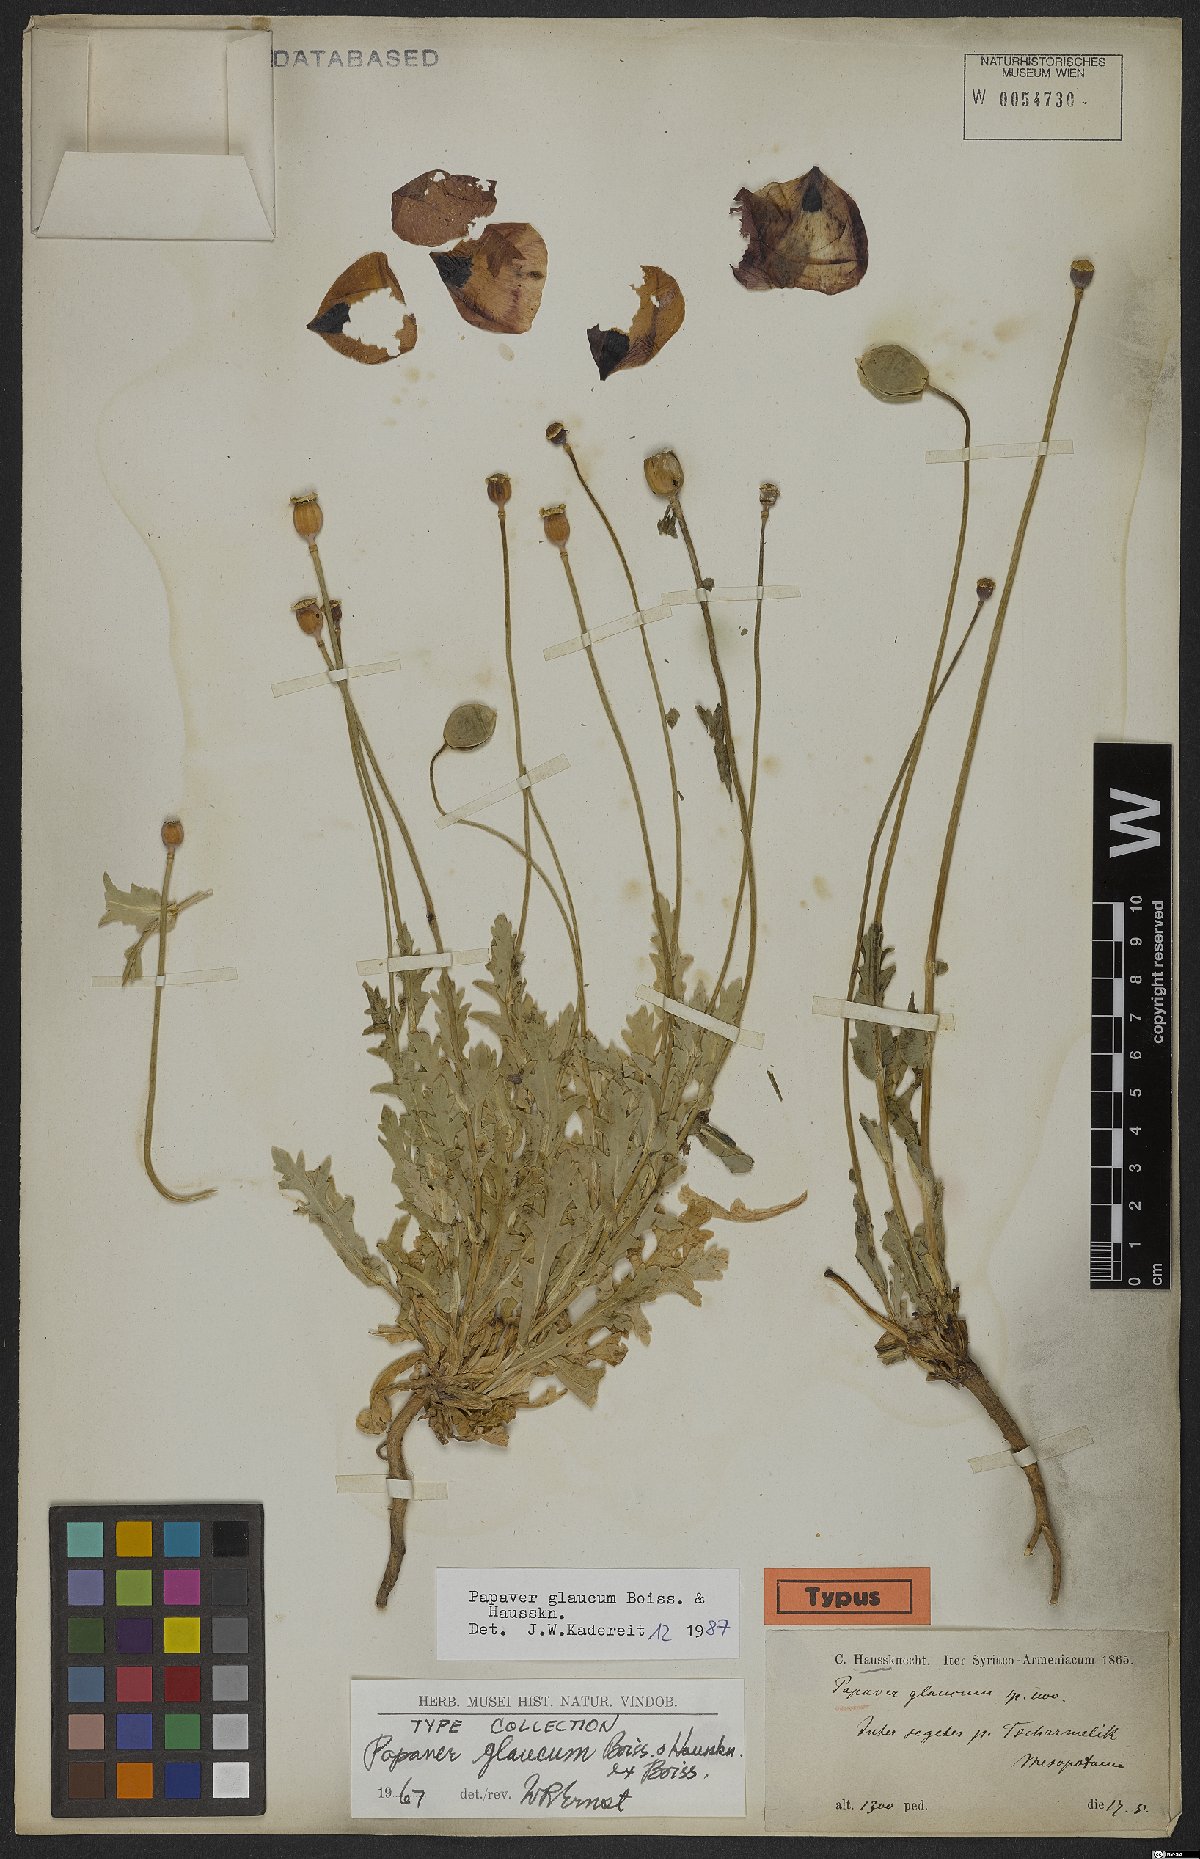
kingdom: Plantae
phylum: Tracheophyta
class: Magnoliopsida
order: Ranunculales
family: Papaveraceae
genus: Papaver
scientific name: Papaver glaucum
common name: Tulip poppy
